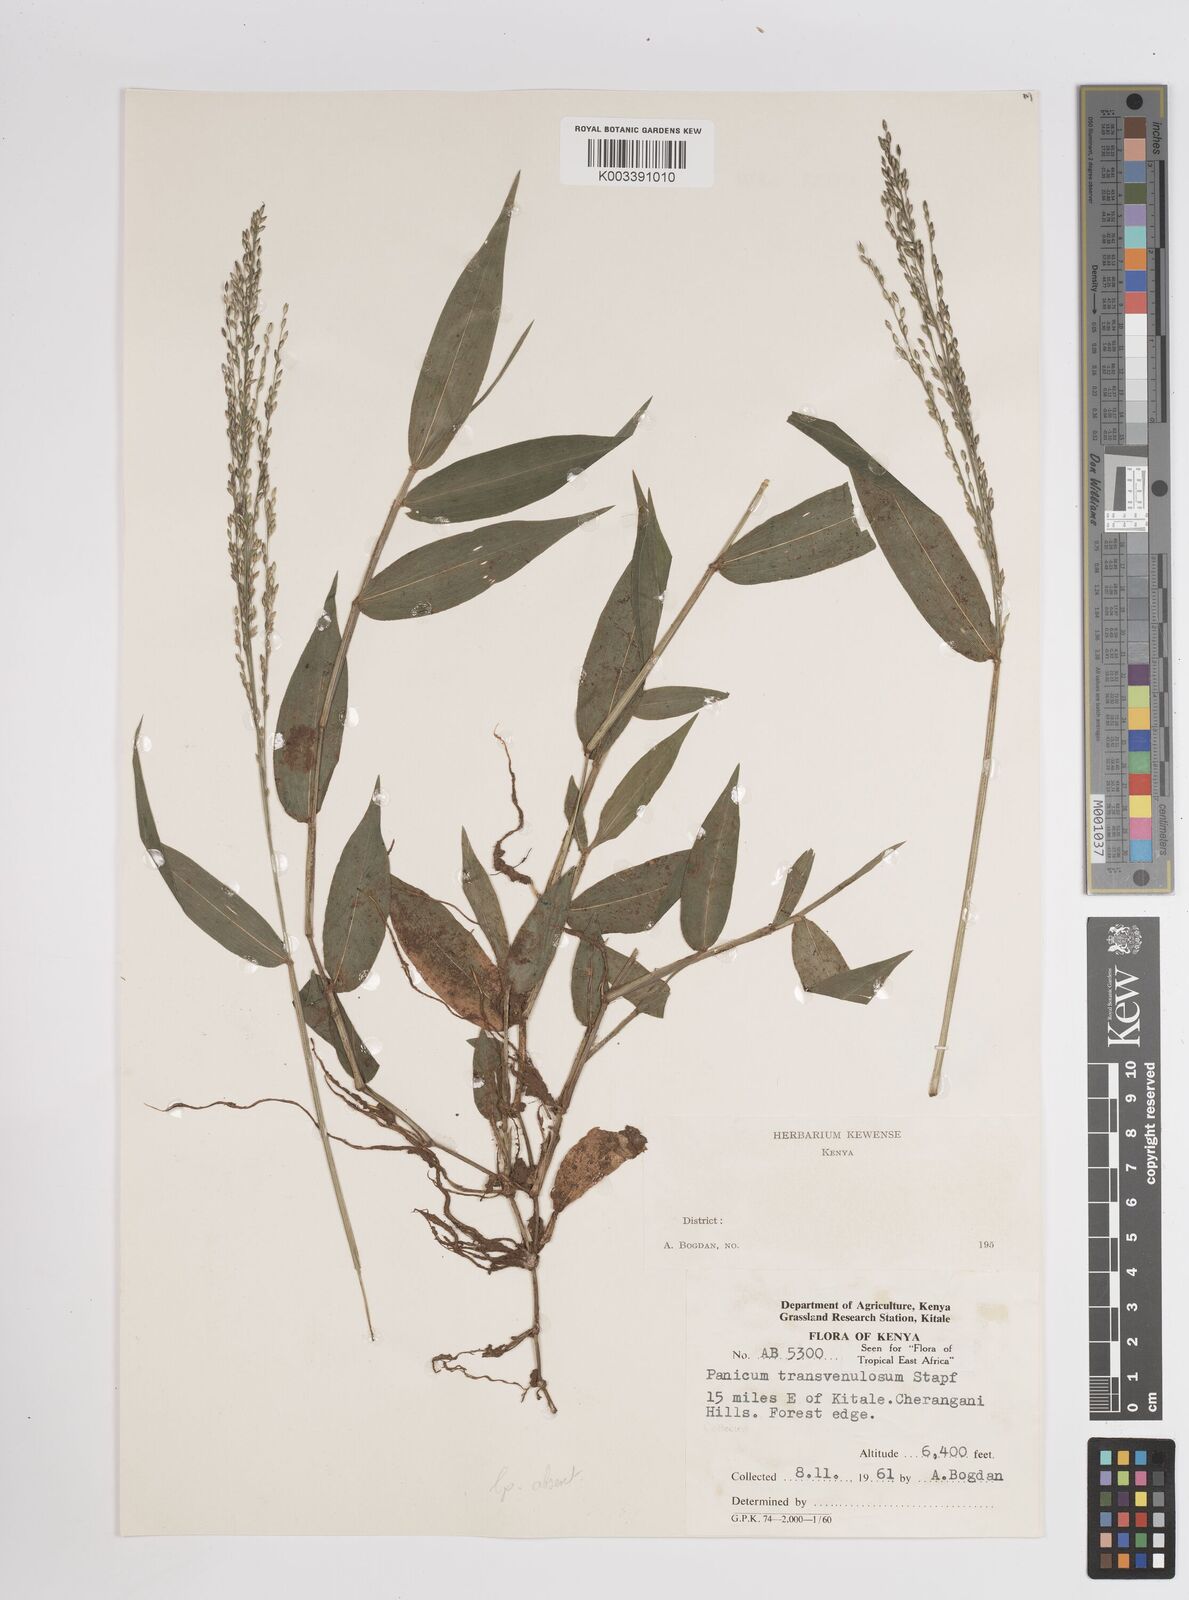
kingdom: Plantae
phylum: Tracheophyta
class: Liliopsida
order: Poales
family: Poaceae
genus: Panicum
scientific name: Panicum monticola
